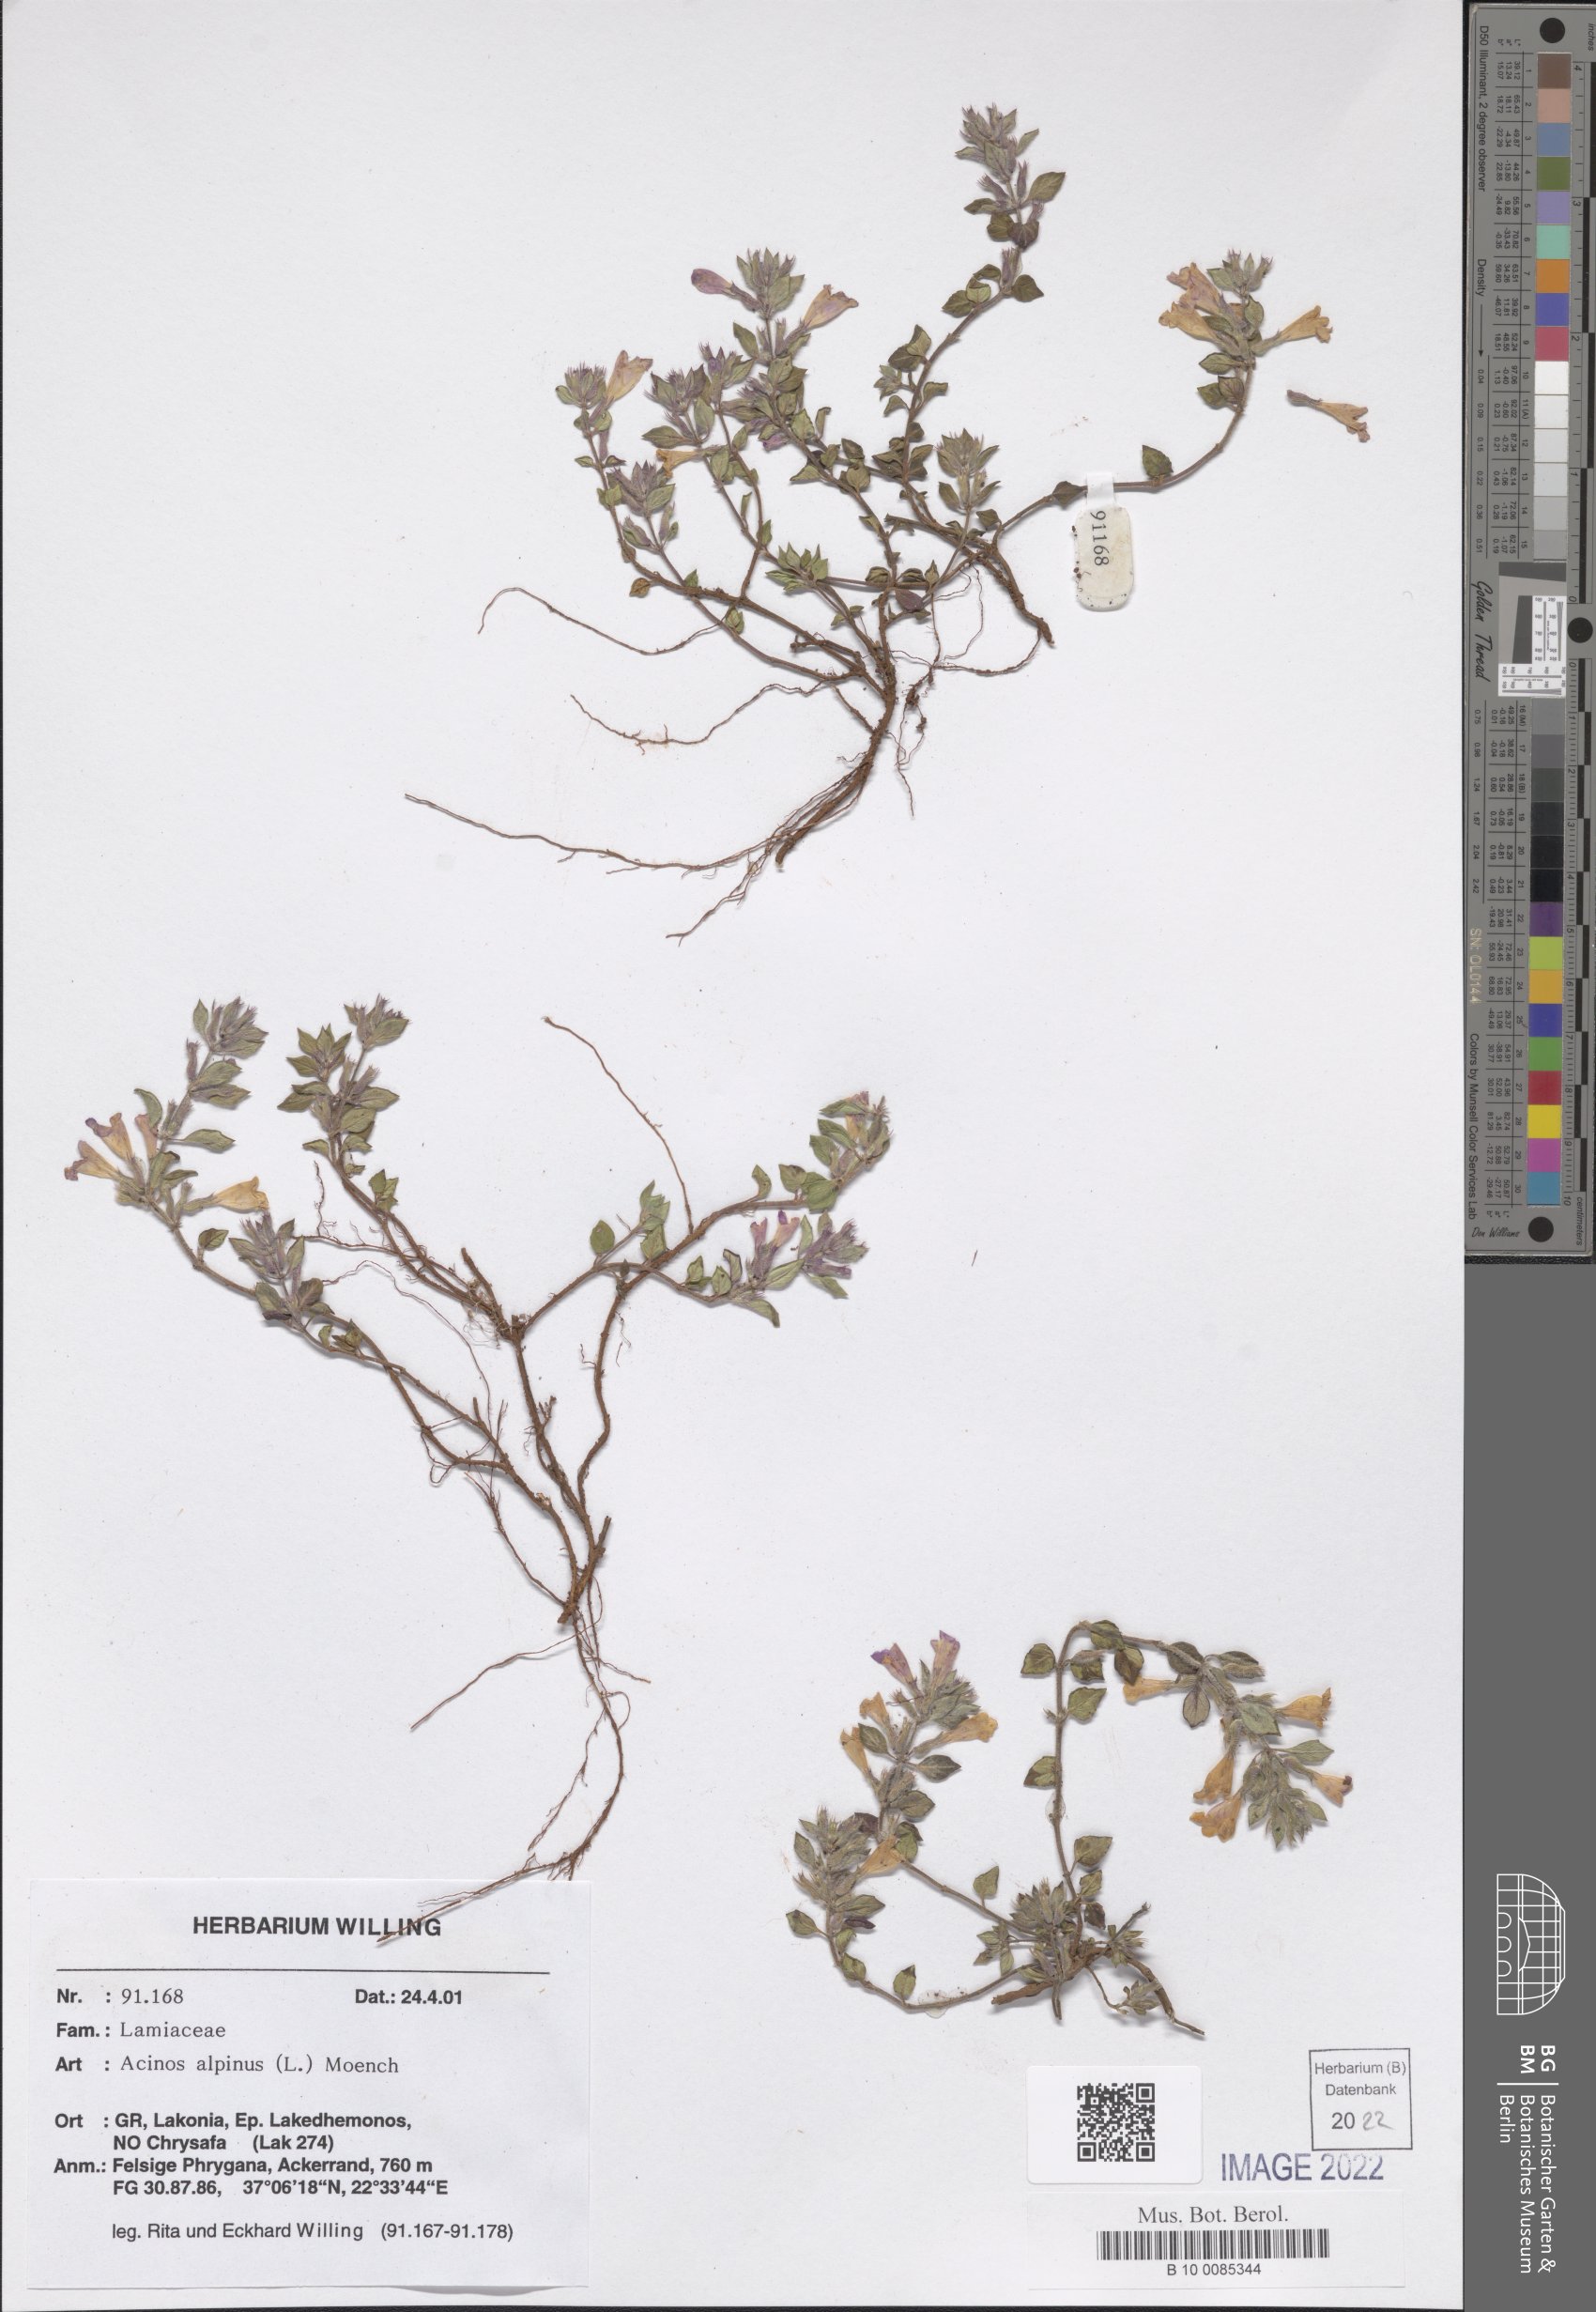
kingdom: Plantae
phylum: Tracheophyta
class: Magnoliopsida
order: Lamiales
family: Lamiaceae
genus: Clinopodium
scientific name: Clinopodium alpinum
